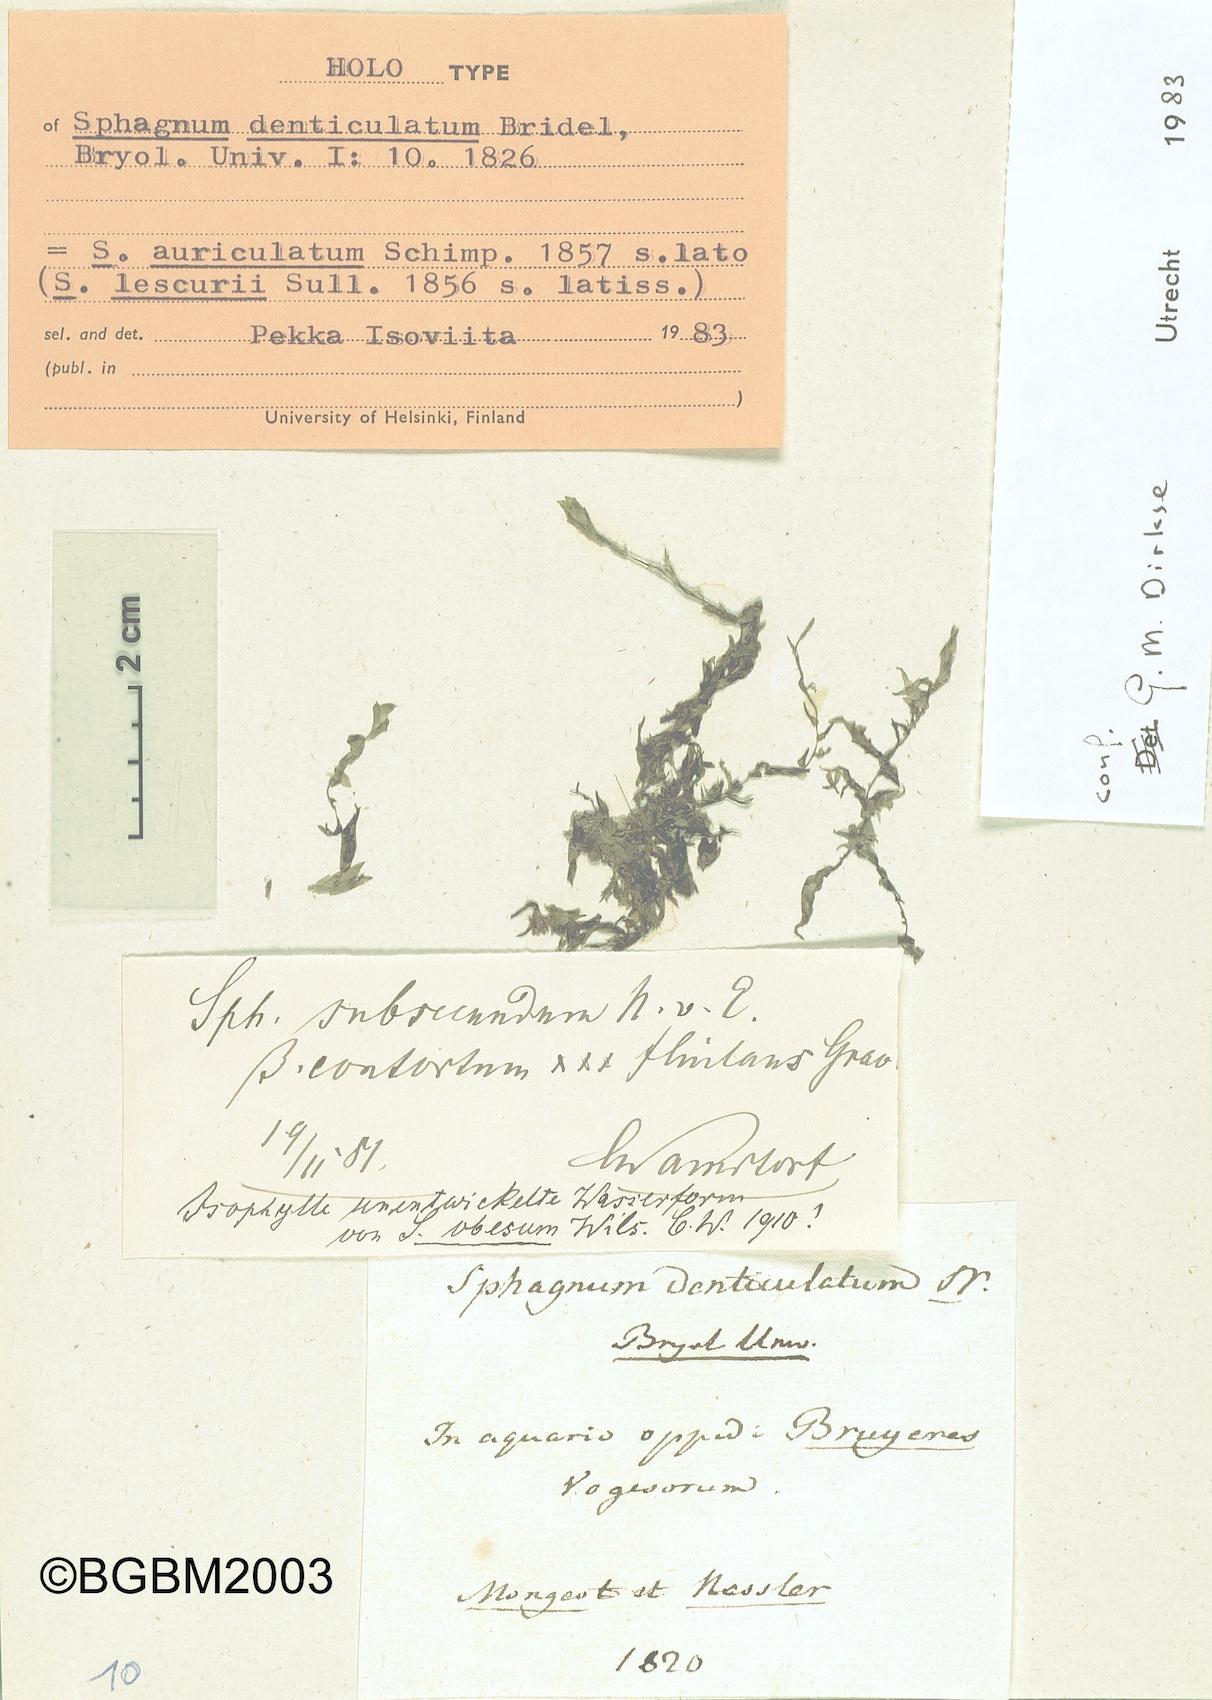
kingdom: Plantae
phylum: Bryophyta
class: Sphagnopsida
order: Sphagnales
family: Sphagnaceae
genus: Sphagnum
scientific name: Sphagnum denticulatum
